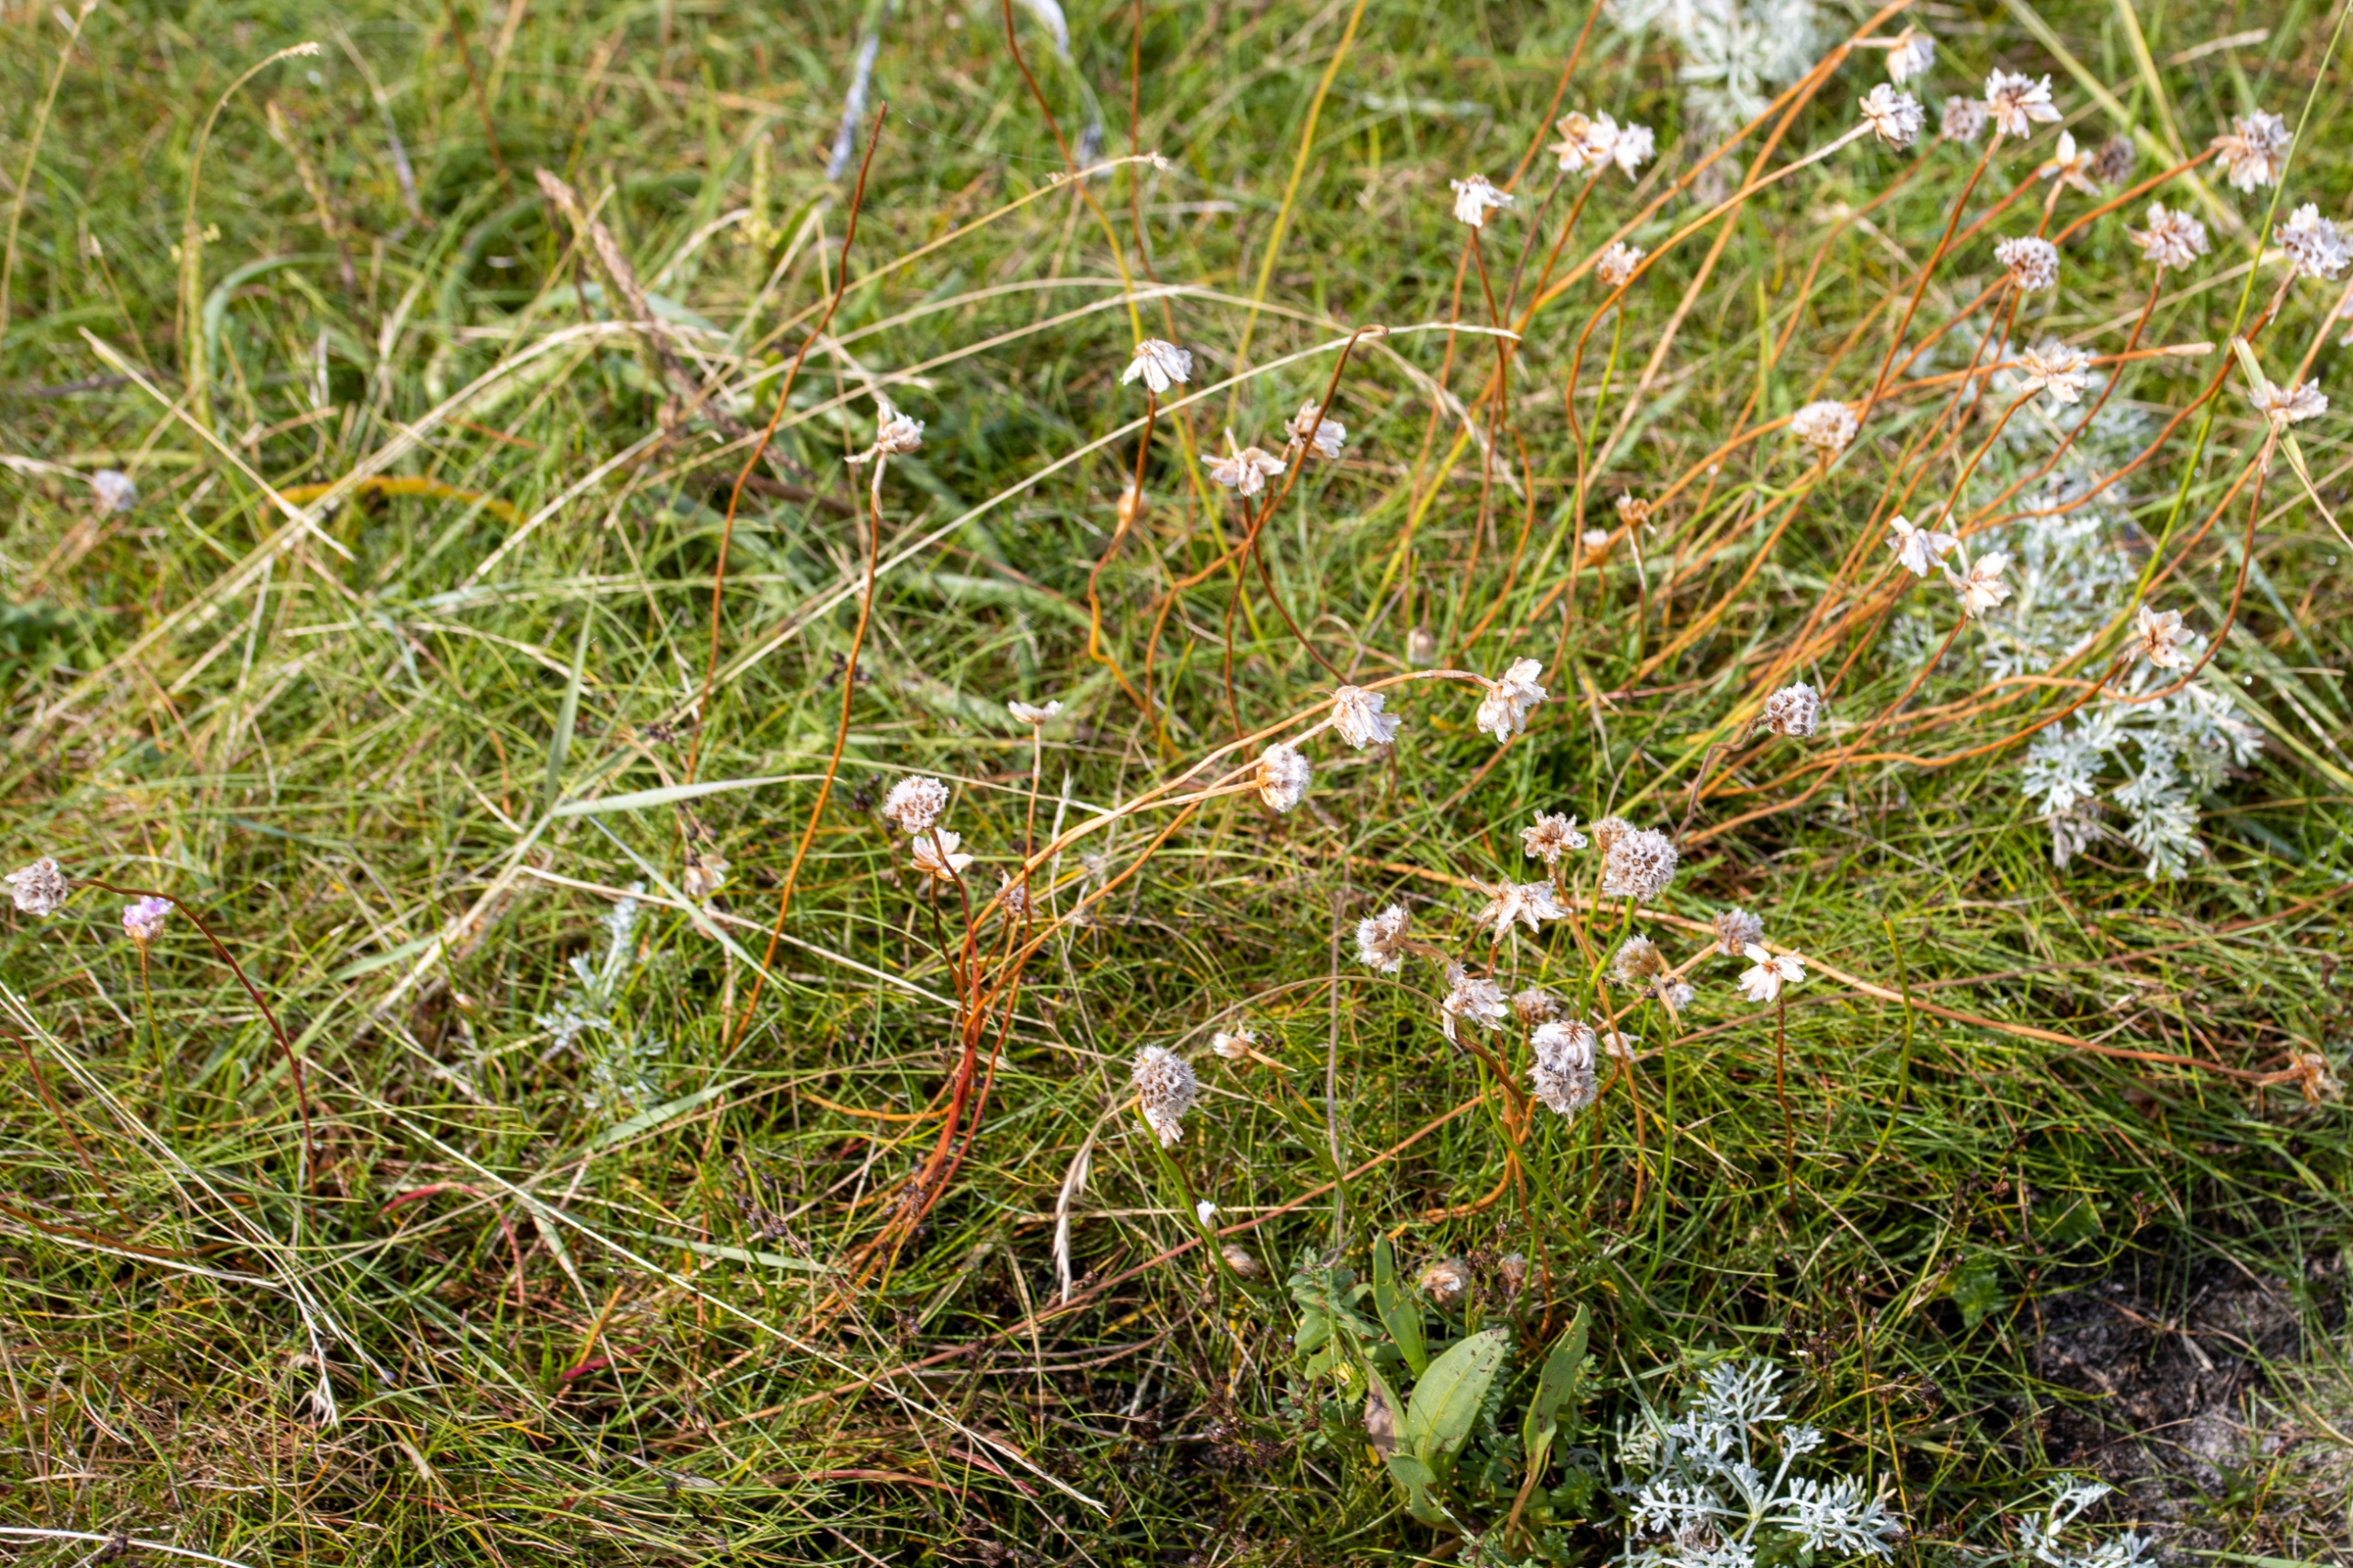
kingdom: Plantae
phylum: Tracheophyta
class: Magnoliopsida
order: Caryophyllales
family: Plumbaginaceae
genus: Armeria
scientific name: Armeria maritima
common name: Engelskgræs
